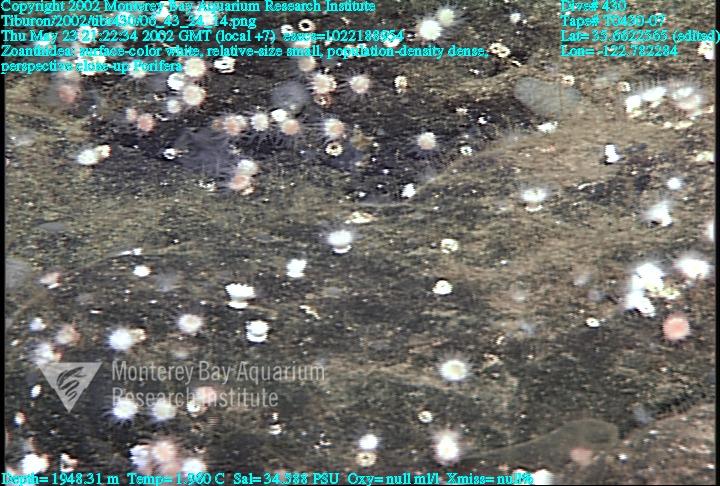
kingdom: Animalia
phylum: Porifera
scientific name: Porifera
